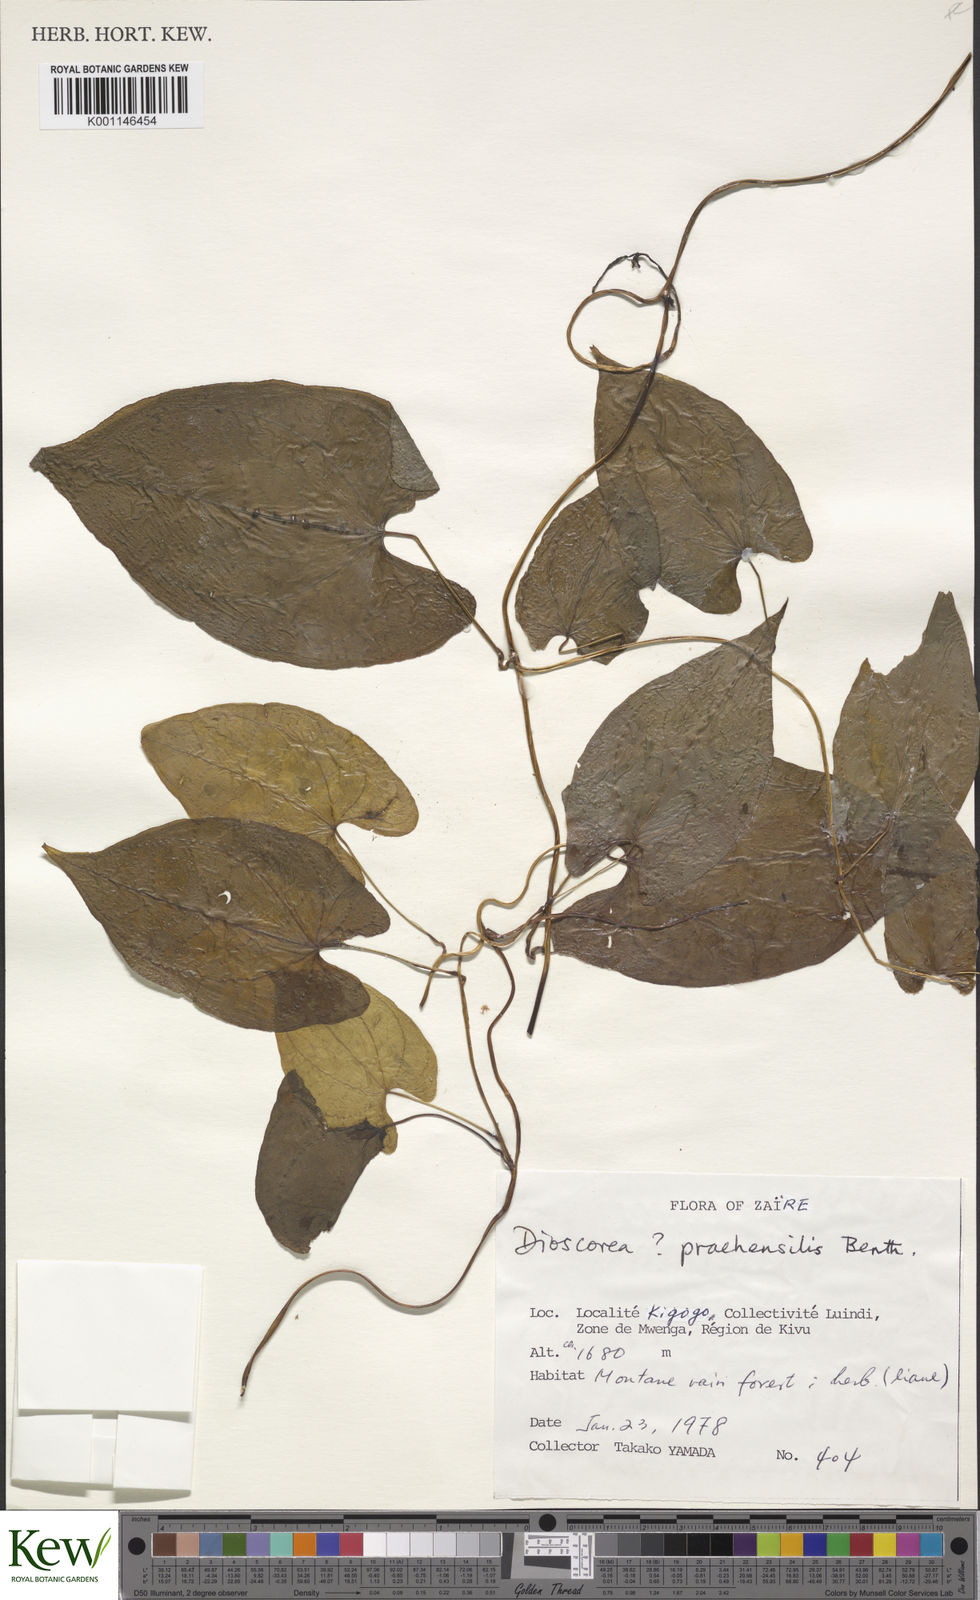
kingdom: Plantae
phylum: Tracheophyta
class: Liliopsida
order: Dioscoreales
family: Dioscoreaceae
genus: Dioscorea
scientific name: Dioscorea praehensilis
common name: Bush yam
